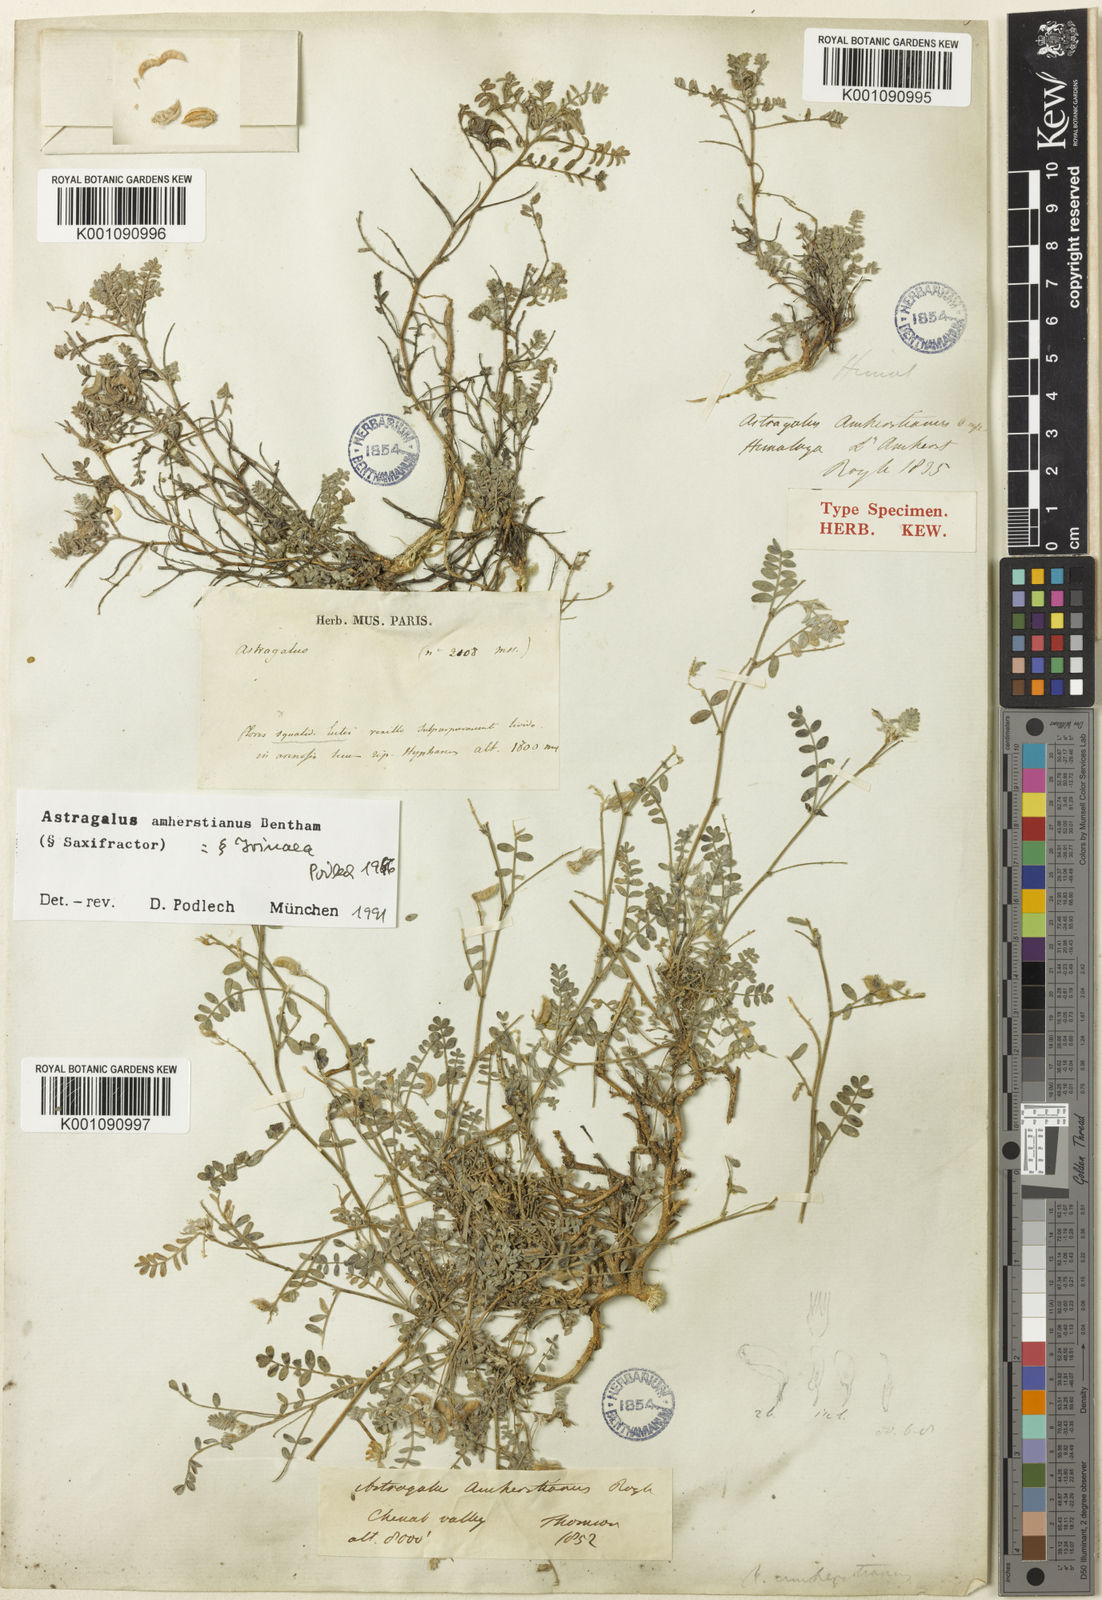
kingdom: Plantae
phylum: Tracheophyta
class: Magnoliopsida
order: Fabales
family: Fabaceae
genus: Astragalus
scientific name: Astragalus
